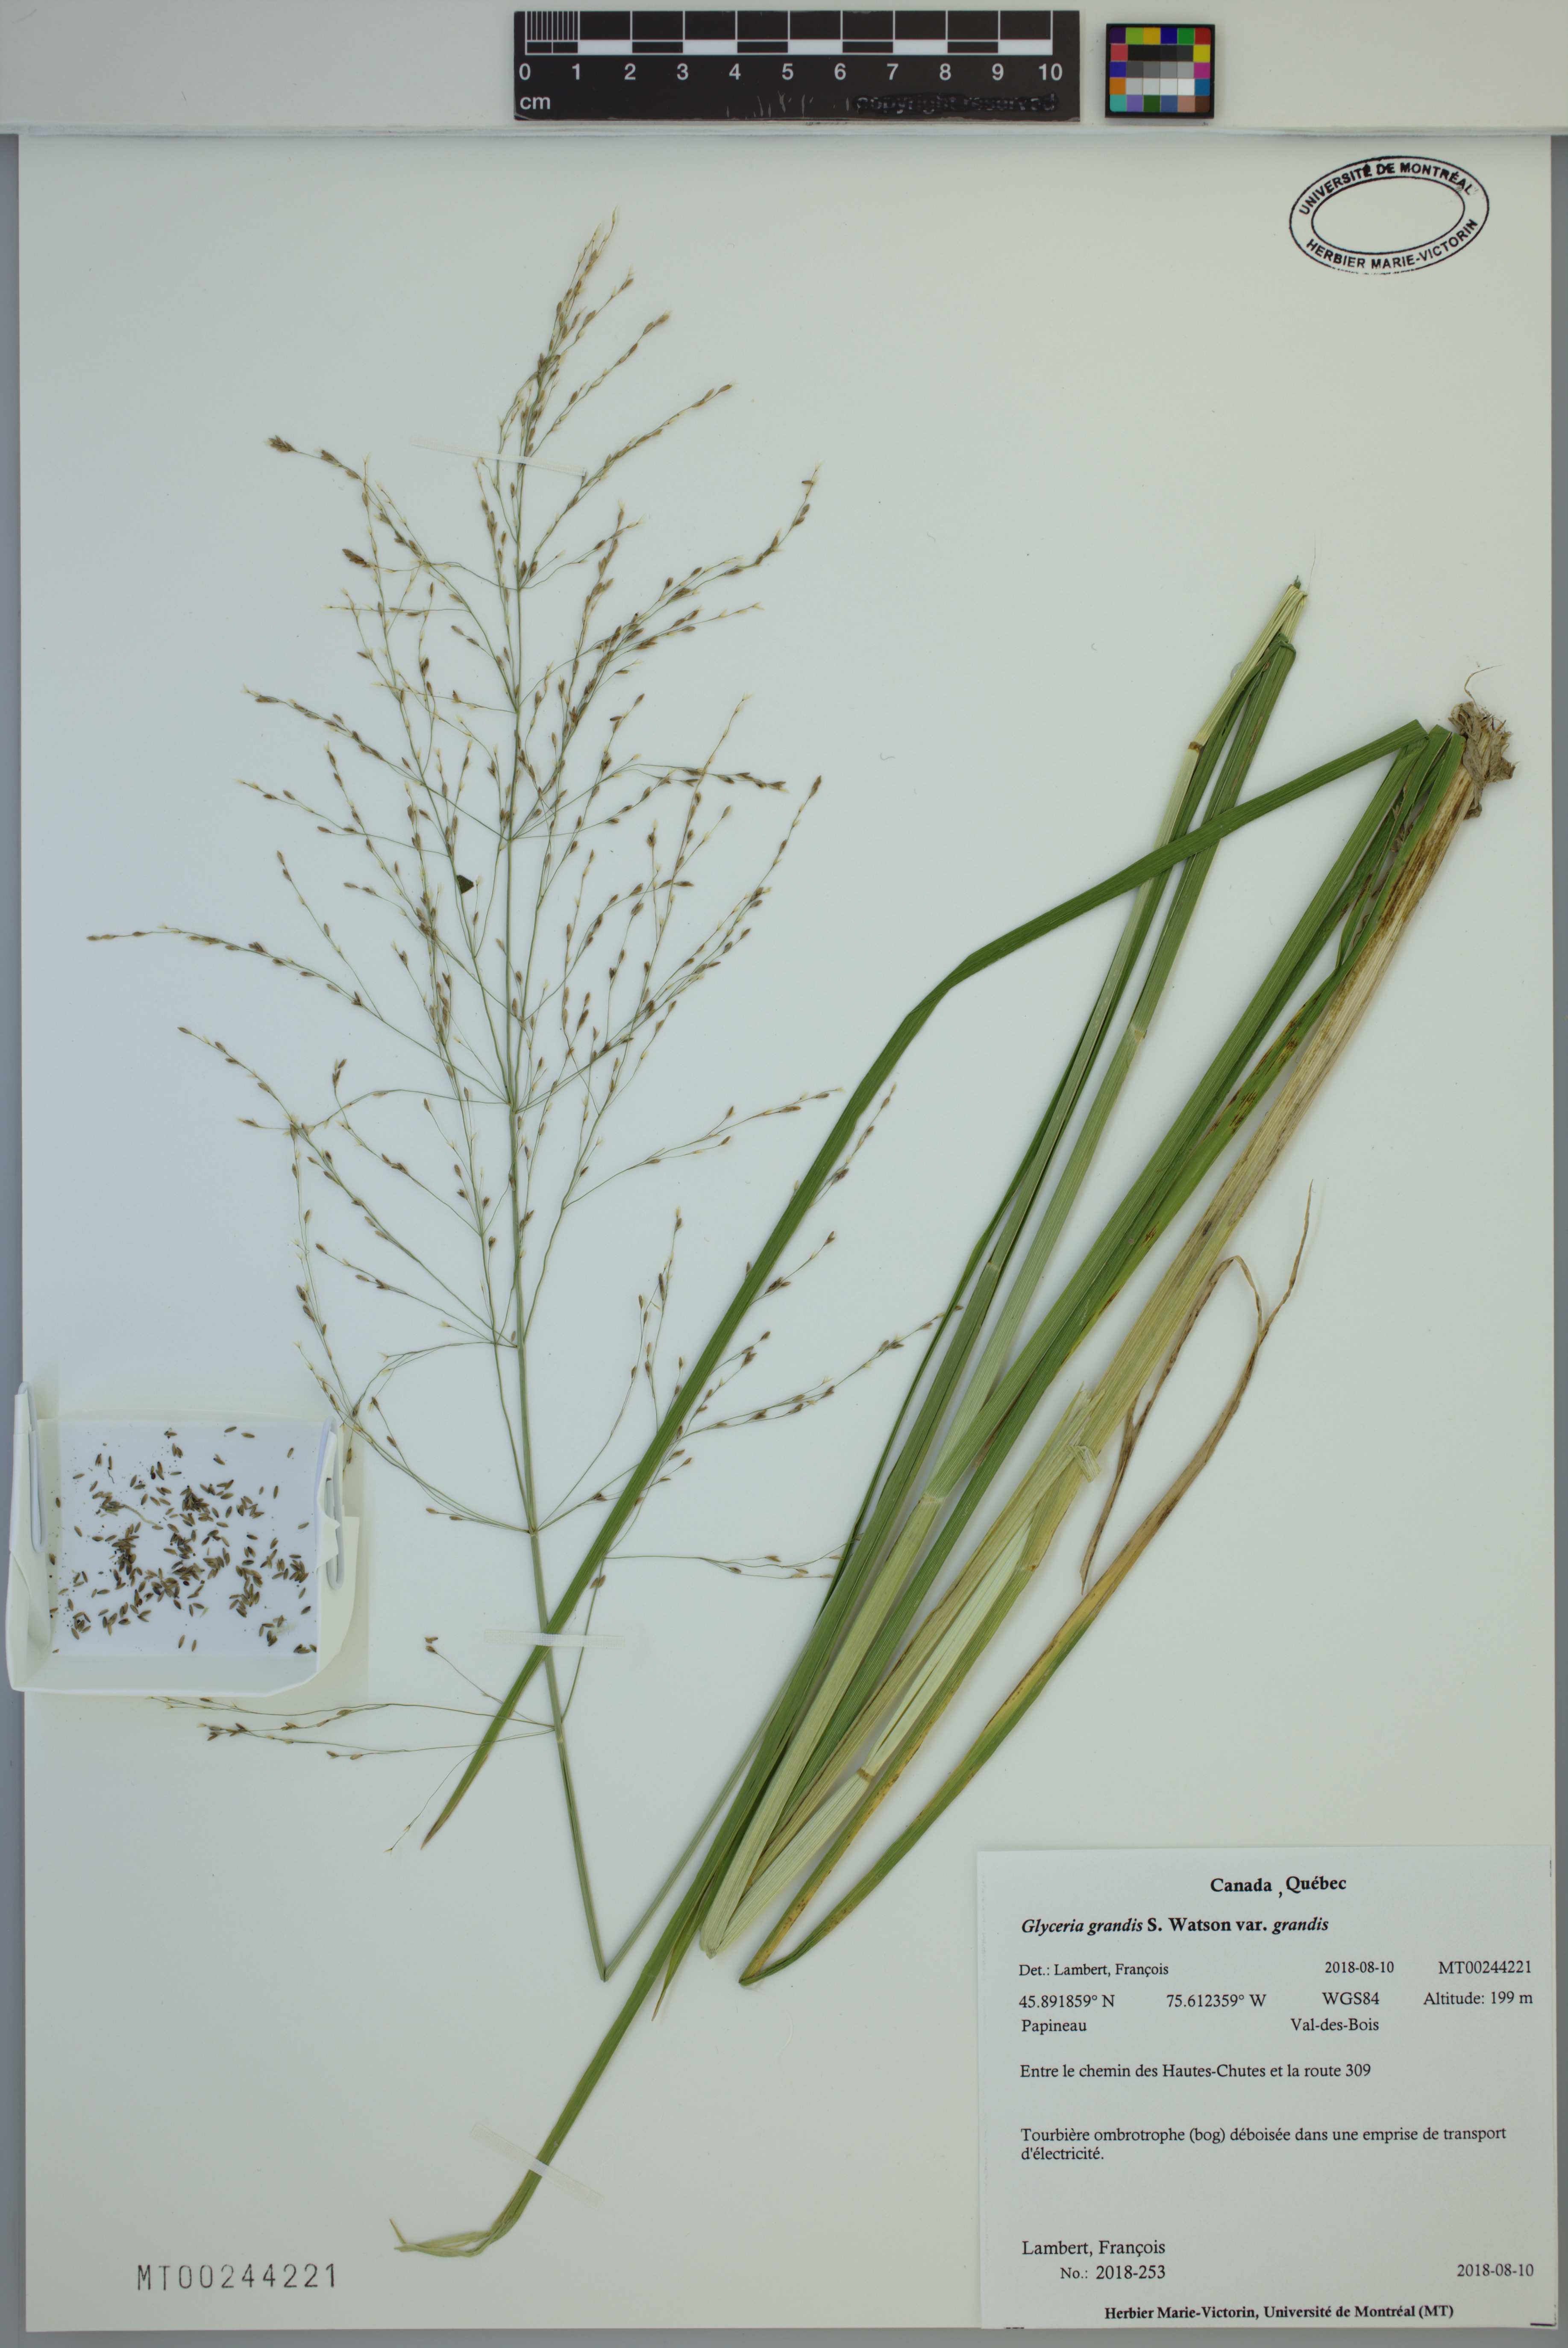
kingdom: Plantae
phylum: Tracheophyta
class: Liliopsida
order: Poales
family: Poaceae
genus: Glyceria
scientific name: Glyceria grandis
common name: American glyceria
